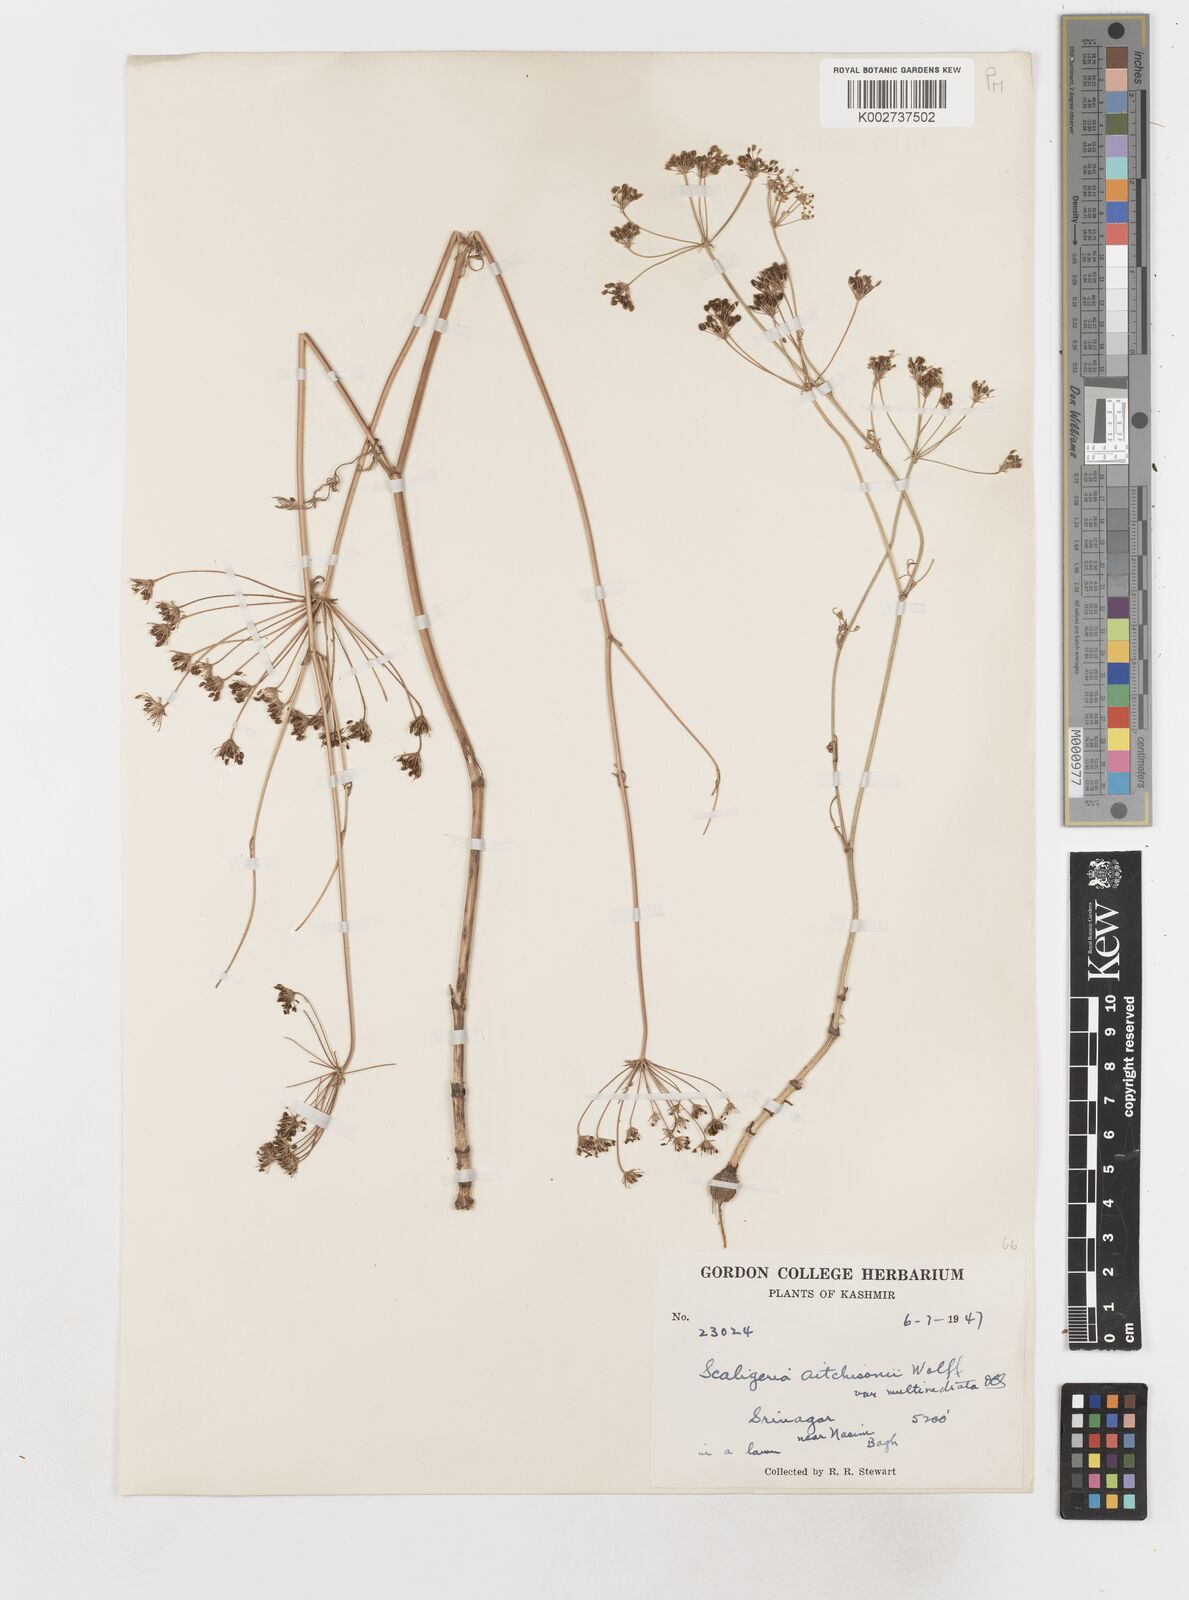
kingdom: Plantae
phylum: Tracheophyta
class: Magnoliopsida
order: Apiales
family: Apiaceae
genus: Scaligeria
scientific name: Scaligeria hirtula
